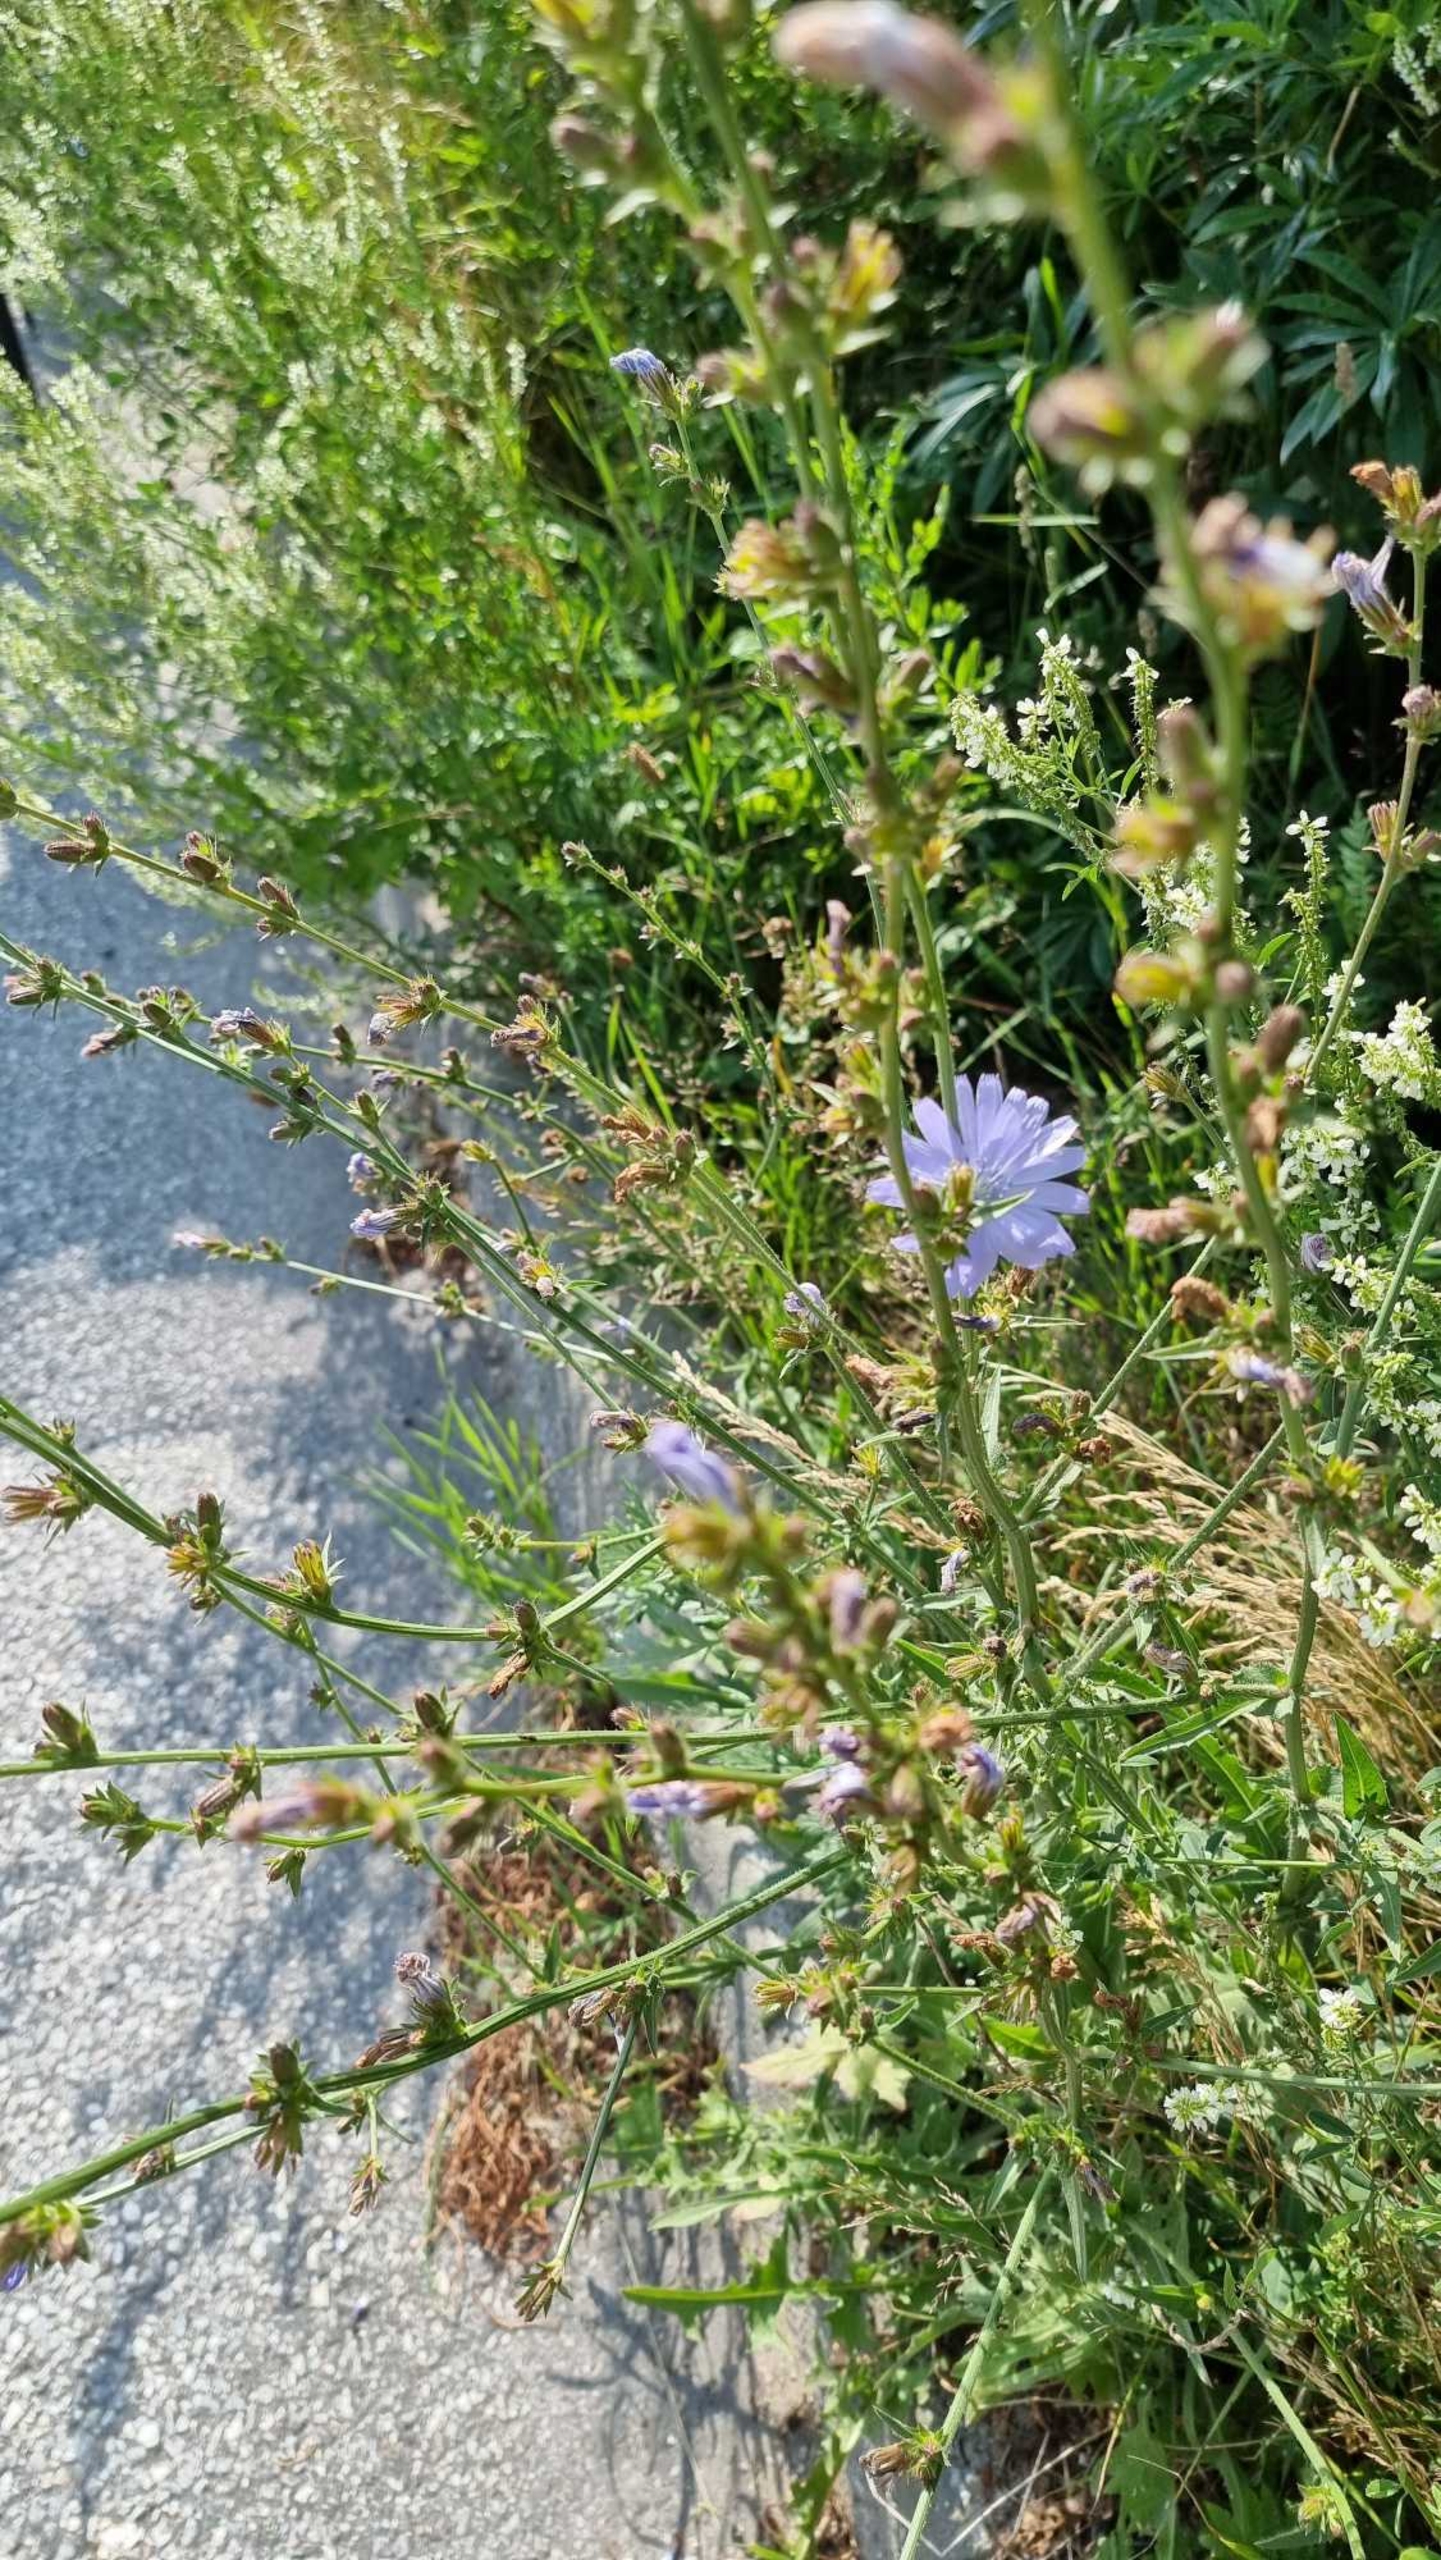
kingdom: Plantae
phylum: Tracheophyta
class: Magnoliopsida
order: Asterales
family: Asteraceae
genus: Cichorium
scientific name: Cichorium intybus
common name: Cikorie
